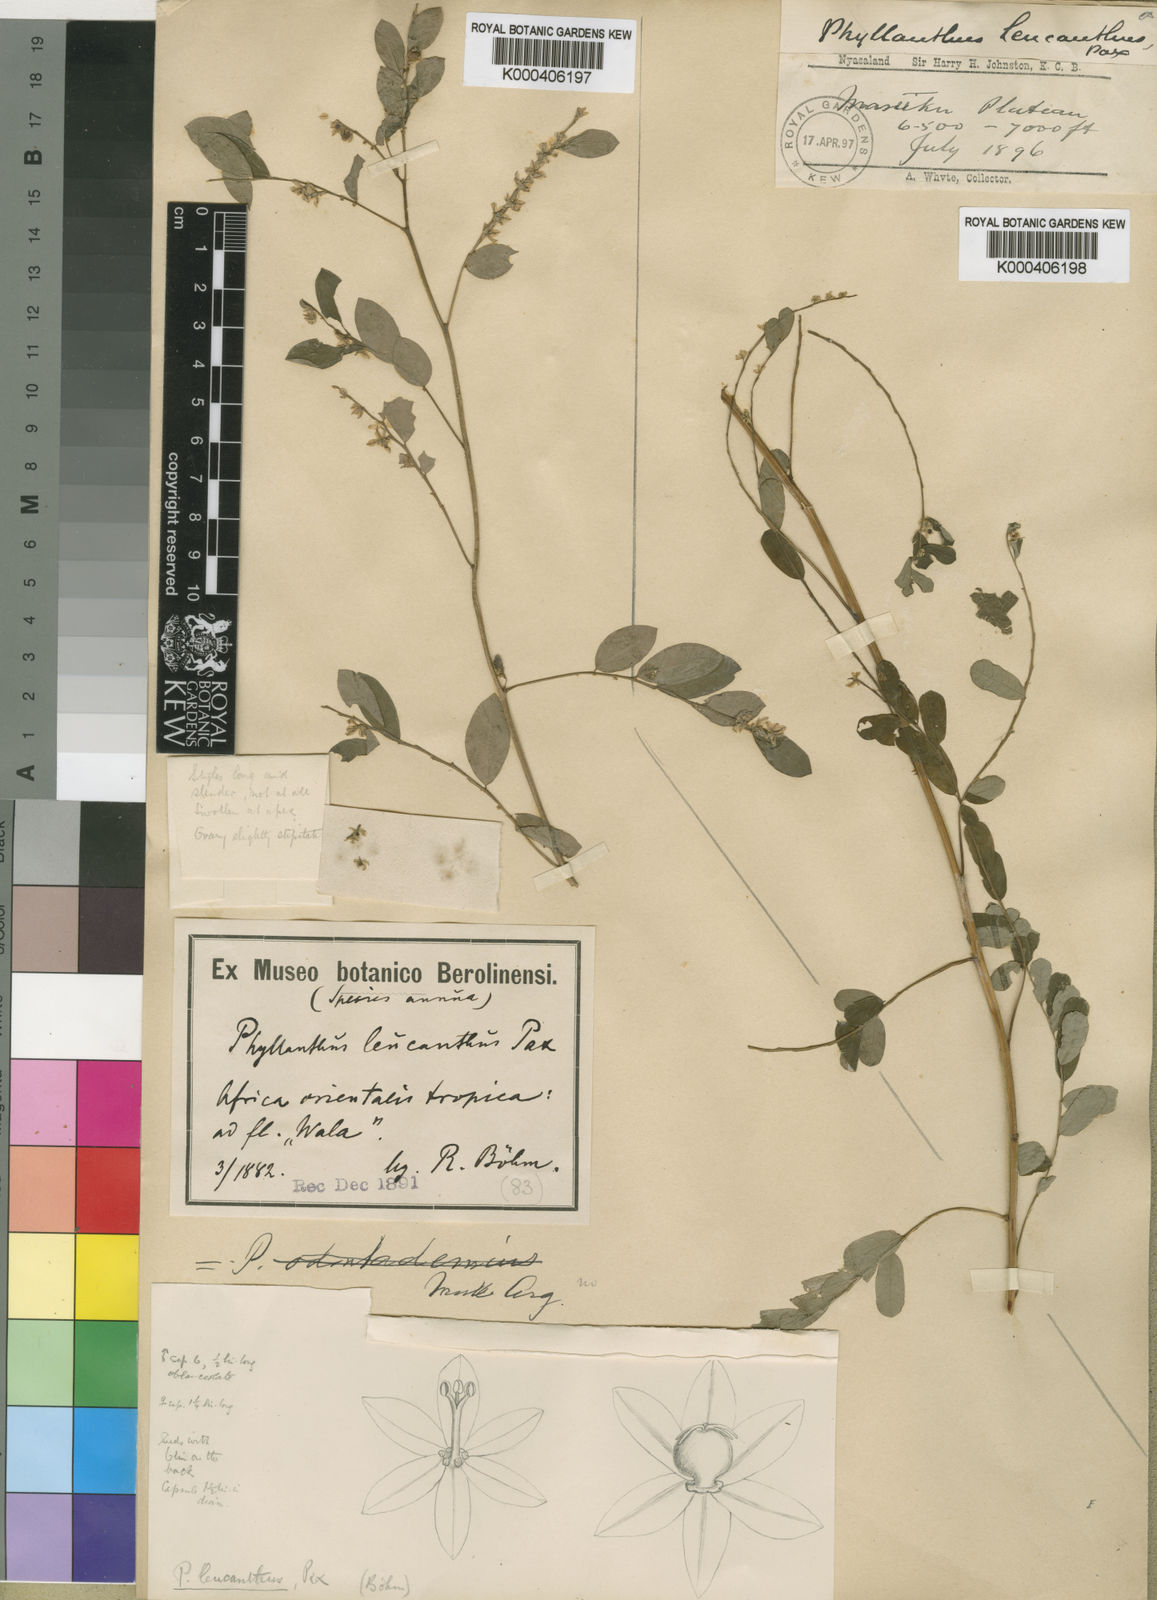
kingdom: Plantae
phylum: Tracheophyta
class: Magnoliopsida
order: Malpighiales
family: Phyllanthaceae
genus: Phyllanthus
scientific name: Phyllanthus leucanthus
